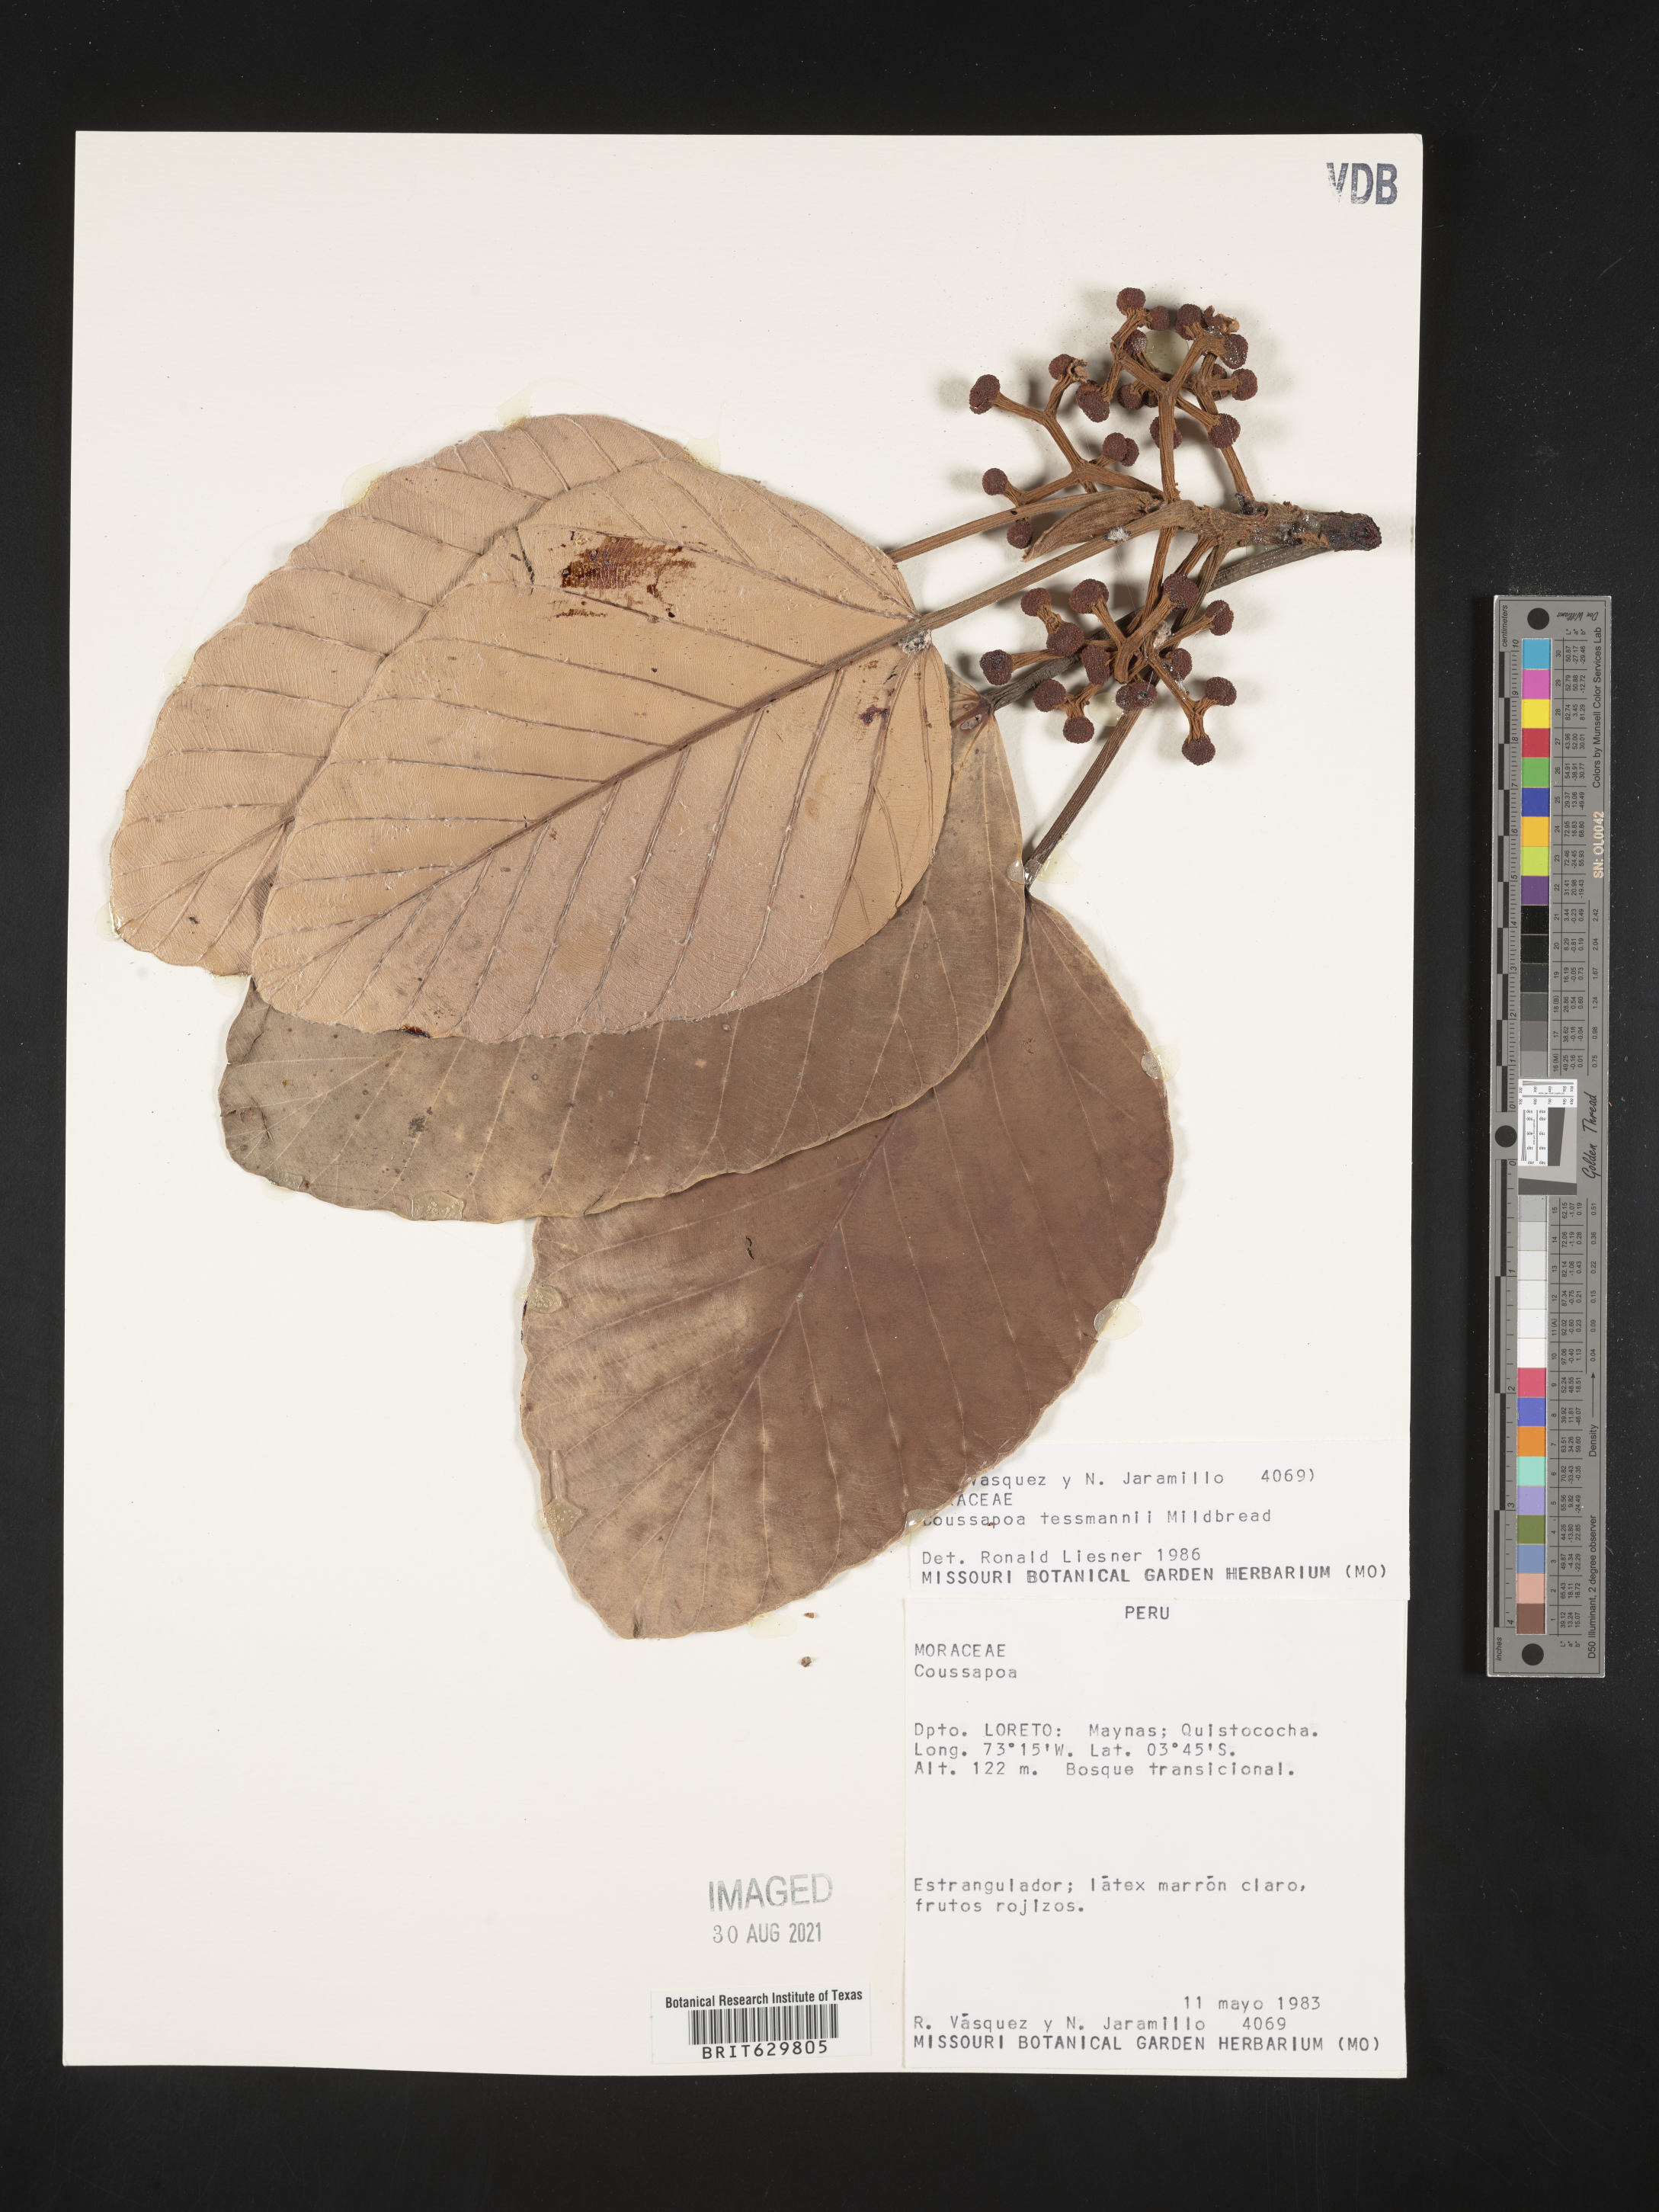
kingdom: Plantae
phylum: Tracheophyta
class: Magnoliopsida
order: Rosales
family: Urticaceae
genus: Coussapoa
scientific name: Coussapoa
